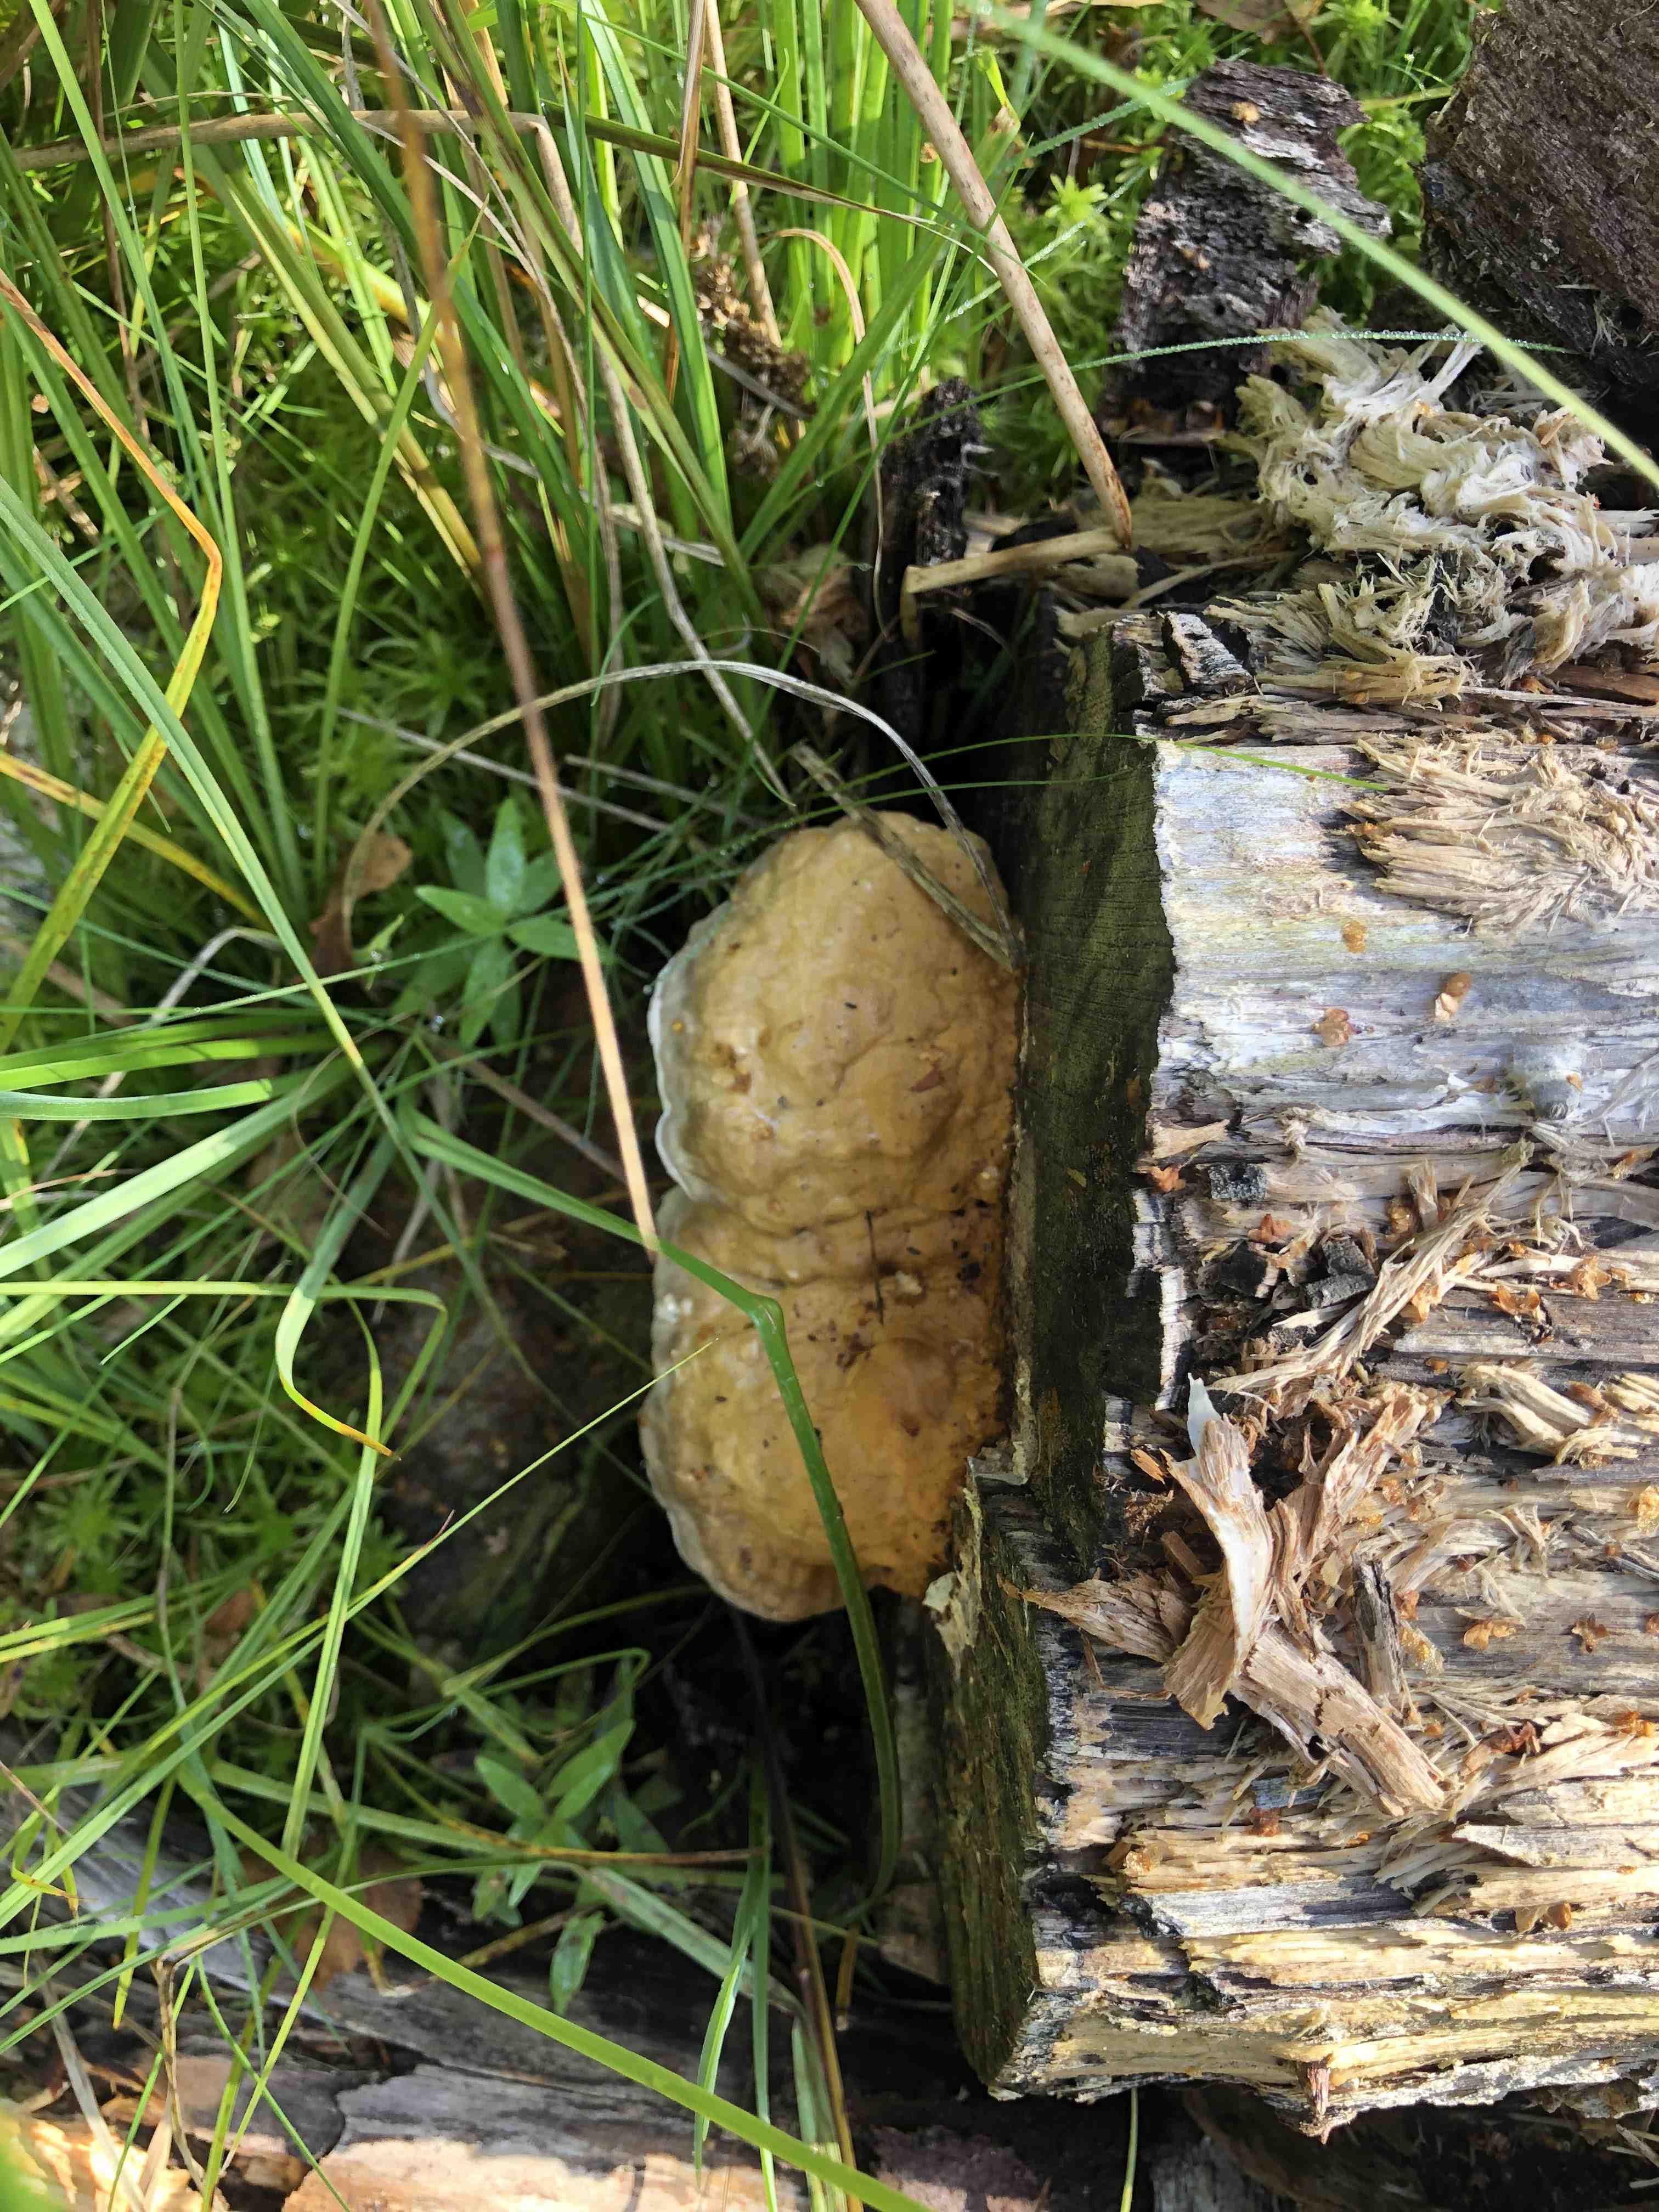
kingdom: Fungi
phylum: Basidiomycota
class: Agaricomycetes
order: Polyporales
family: Fomitopsidaceae
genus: Fomitopsis
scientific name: Fomitopsis pinicola
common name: randbæltet hovporesvamp
